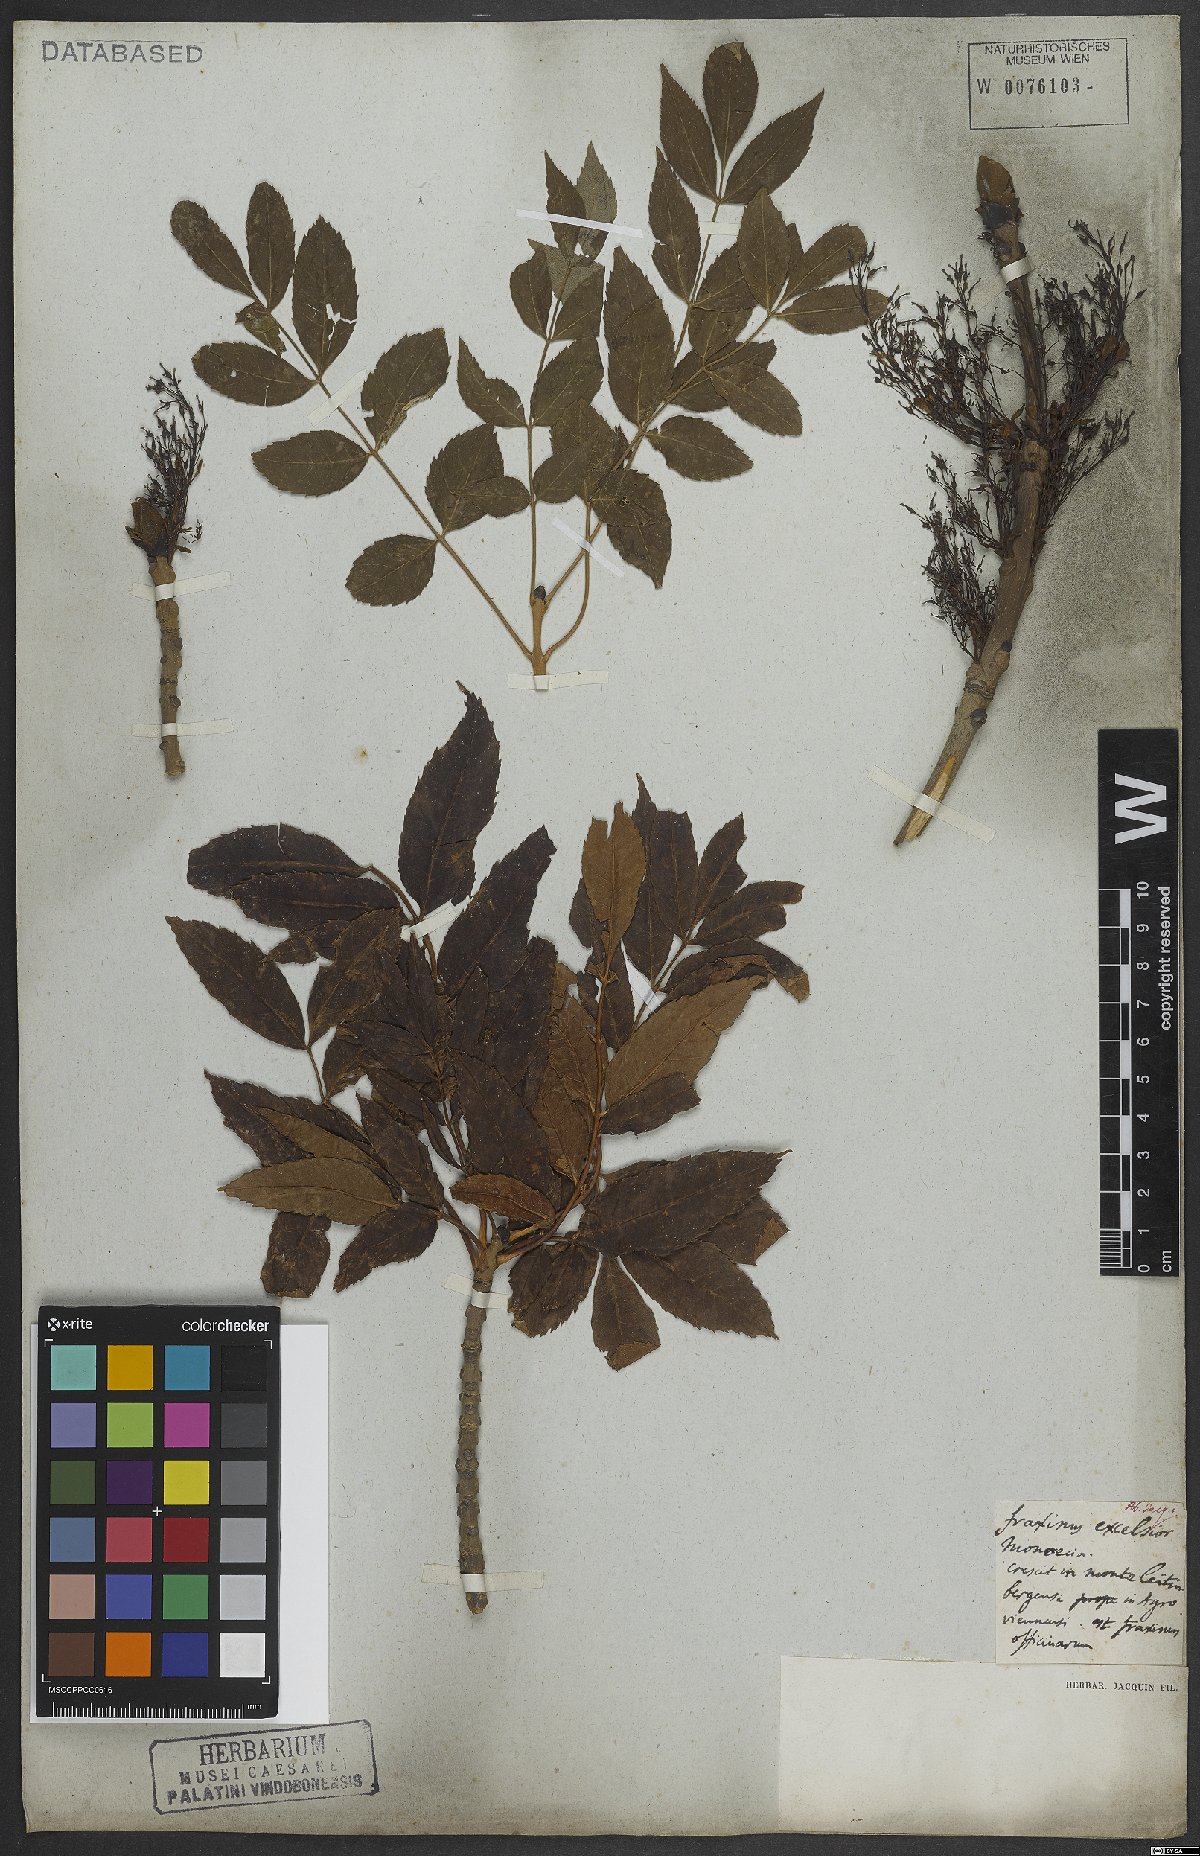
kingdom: Plantae
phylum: Tracheophyta
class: Magnoliopsida
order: Lamiales
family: Oleaceae
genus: Fraxinus
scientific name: Fraxinus excelsior
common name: European ash
